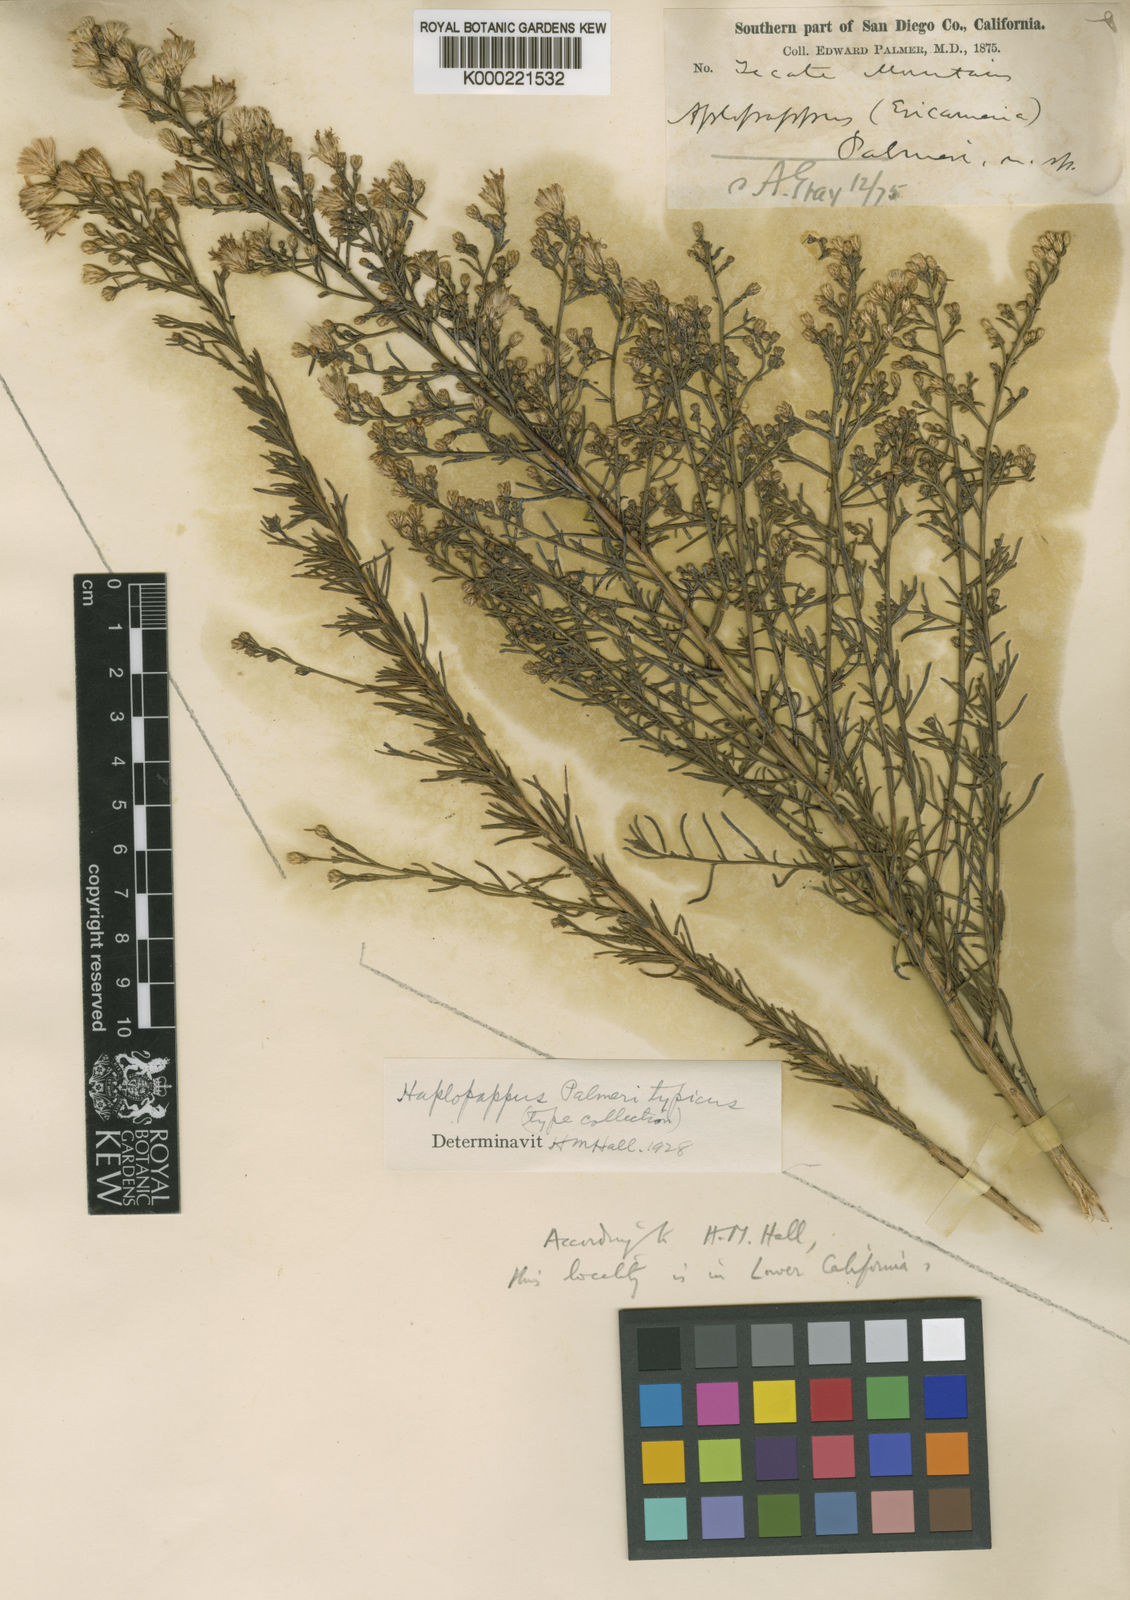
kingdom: Plantae
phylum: Tracheophyta
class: Magnoliopsida
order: Asterales
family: Asteraceae
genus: Ericameria
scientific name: Ericameria palmeri
